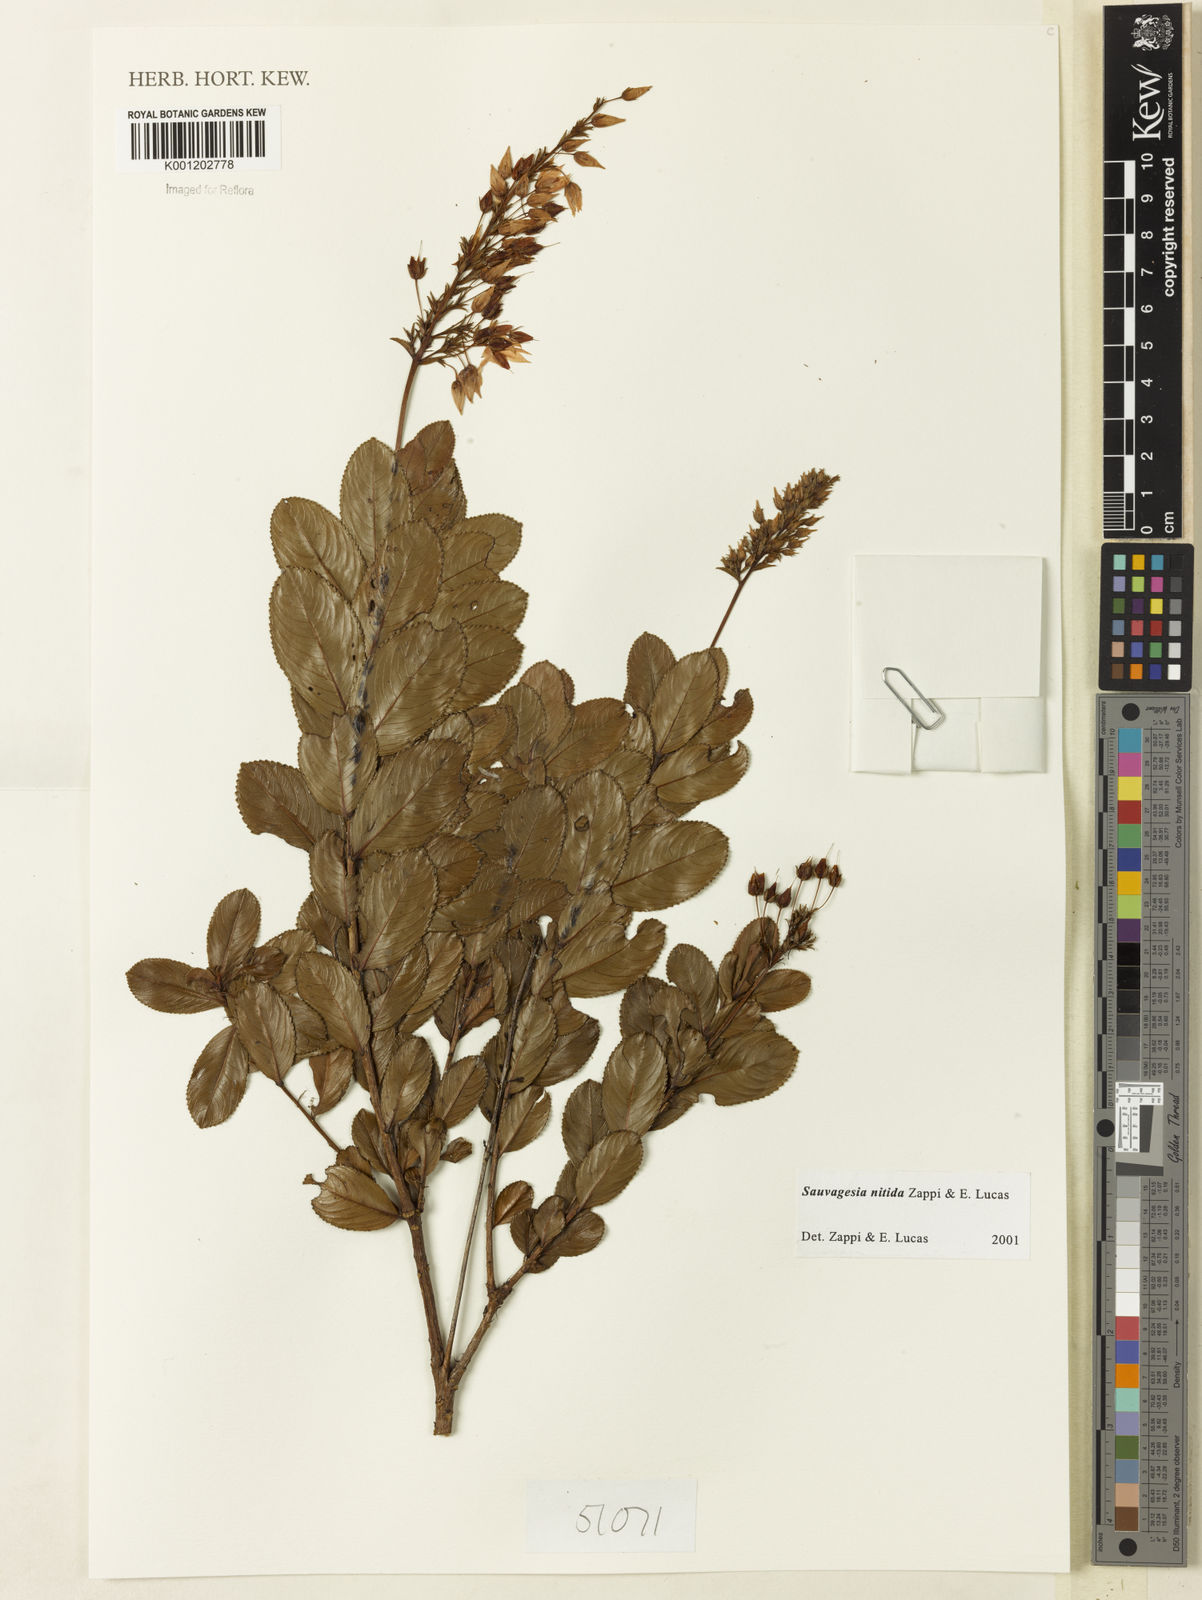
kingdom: Plantae
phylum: Tracheophyta
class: Magnoliopsida
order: Malpighiales
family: Ochnaceae
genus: Sauvagesia
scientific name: Sauvagesia nitida
